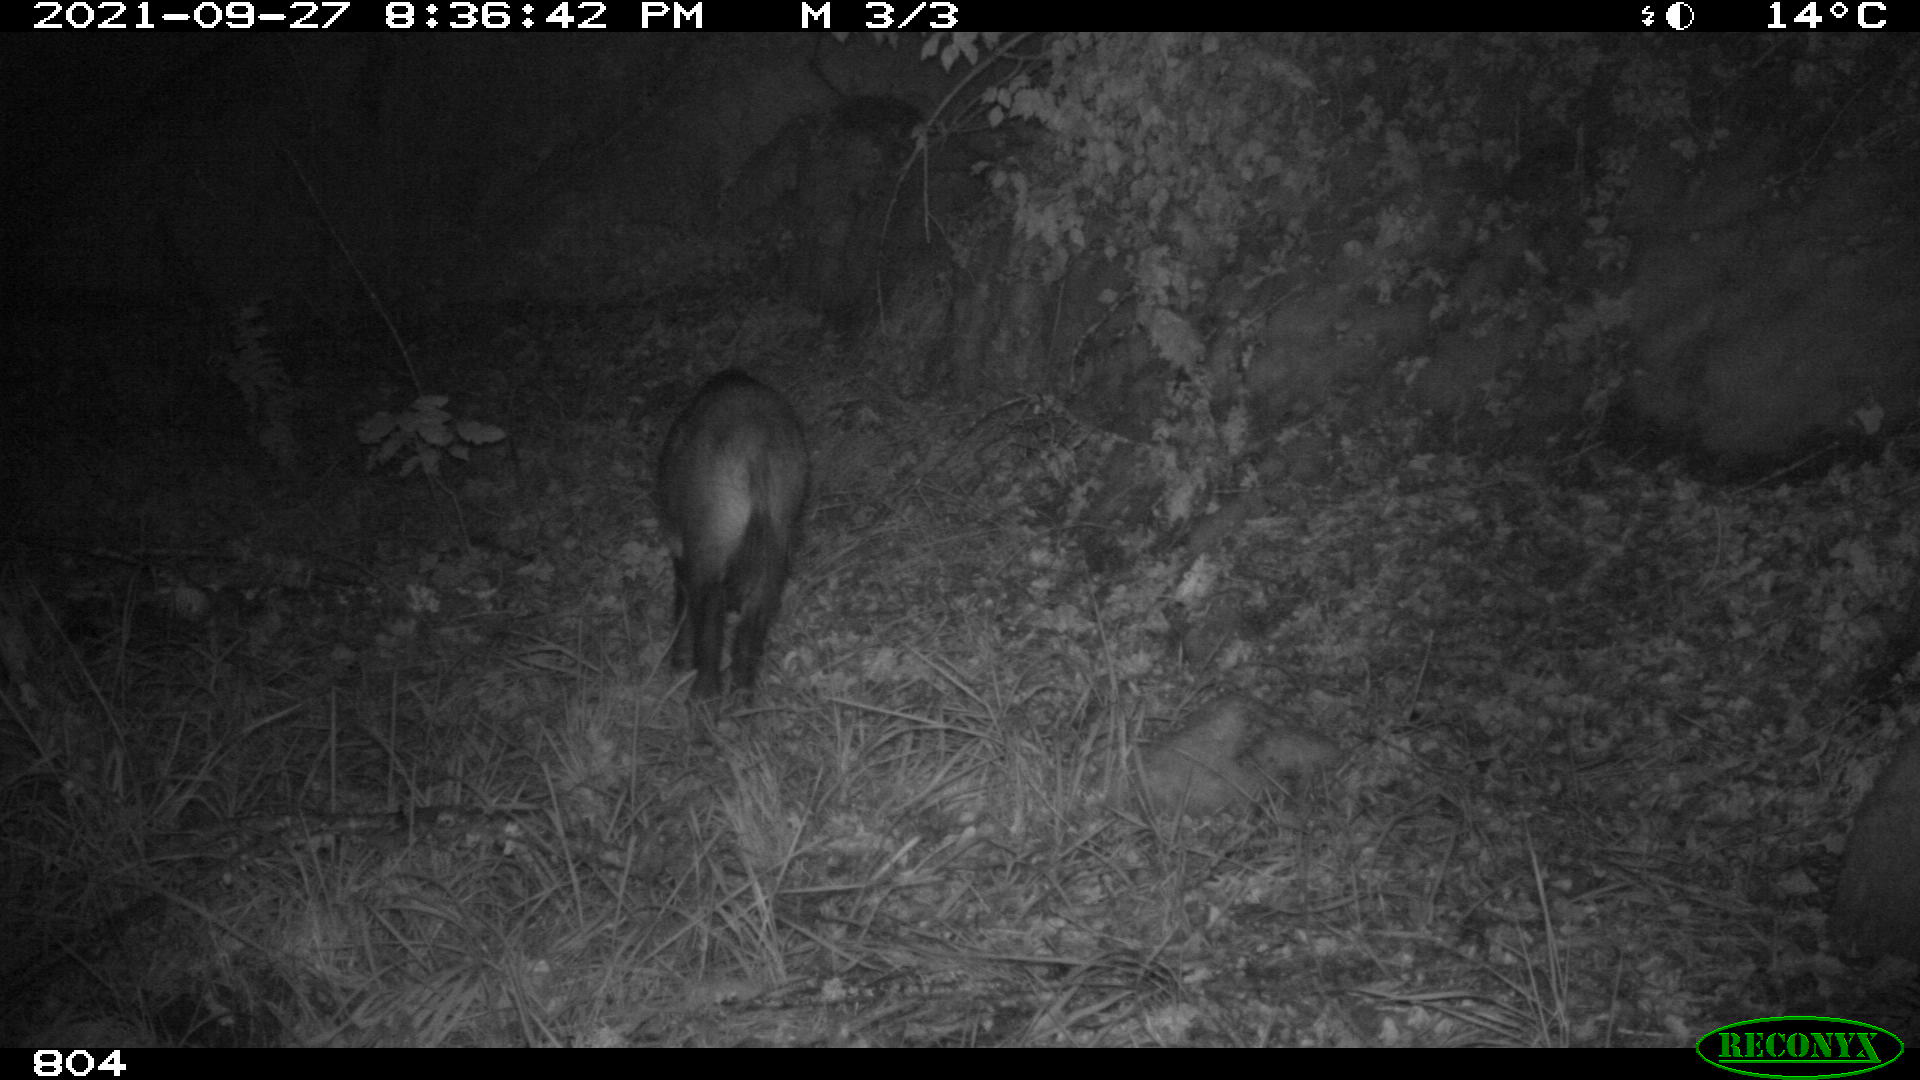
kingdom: Animalia
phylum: Chordata
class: Mammalia
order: Artiodactyla
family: Suidae
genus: Sus
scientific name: Sus scrofa
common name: Wild boar
